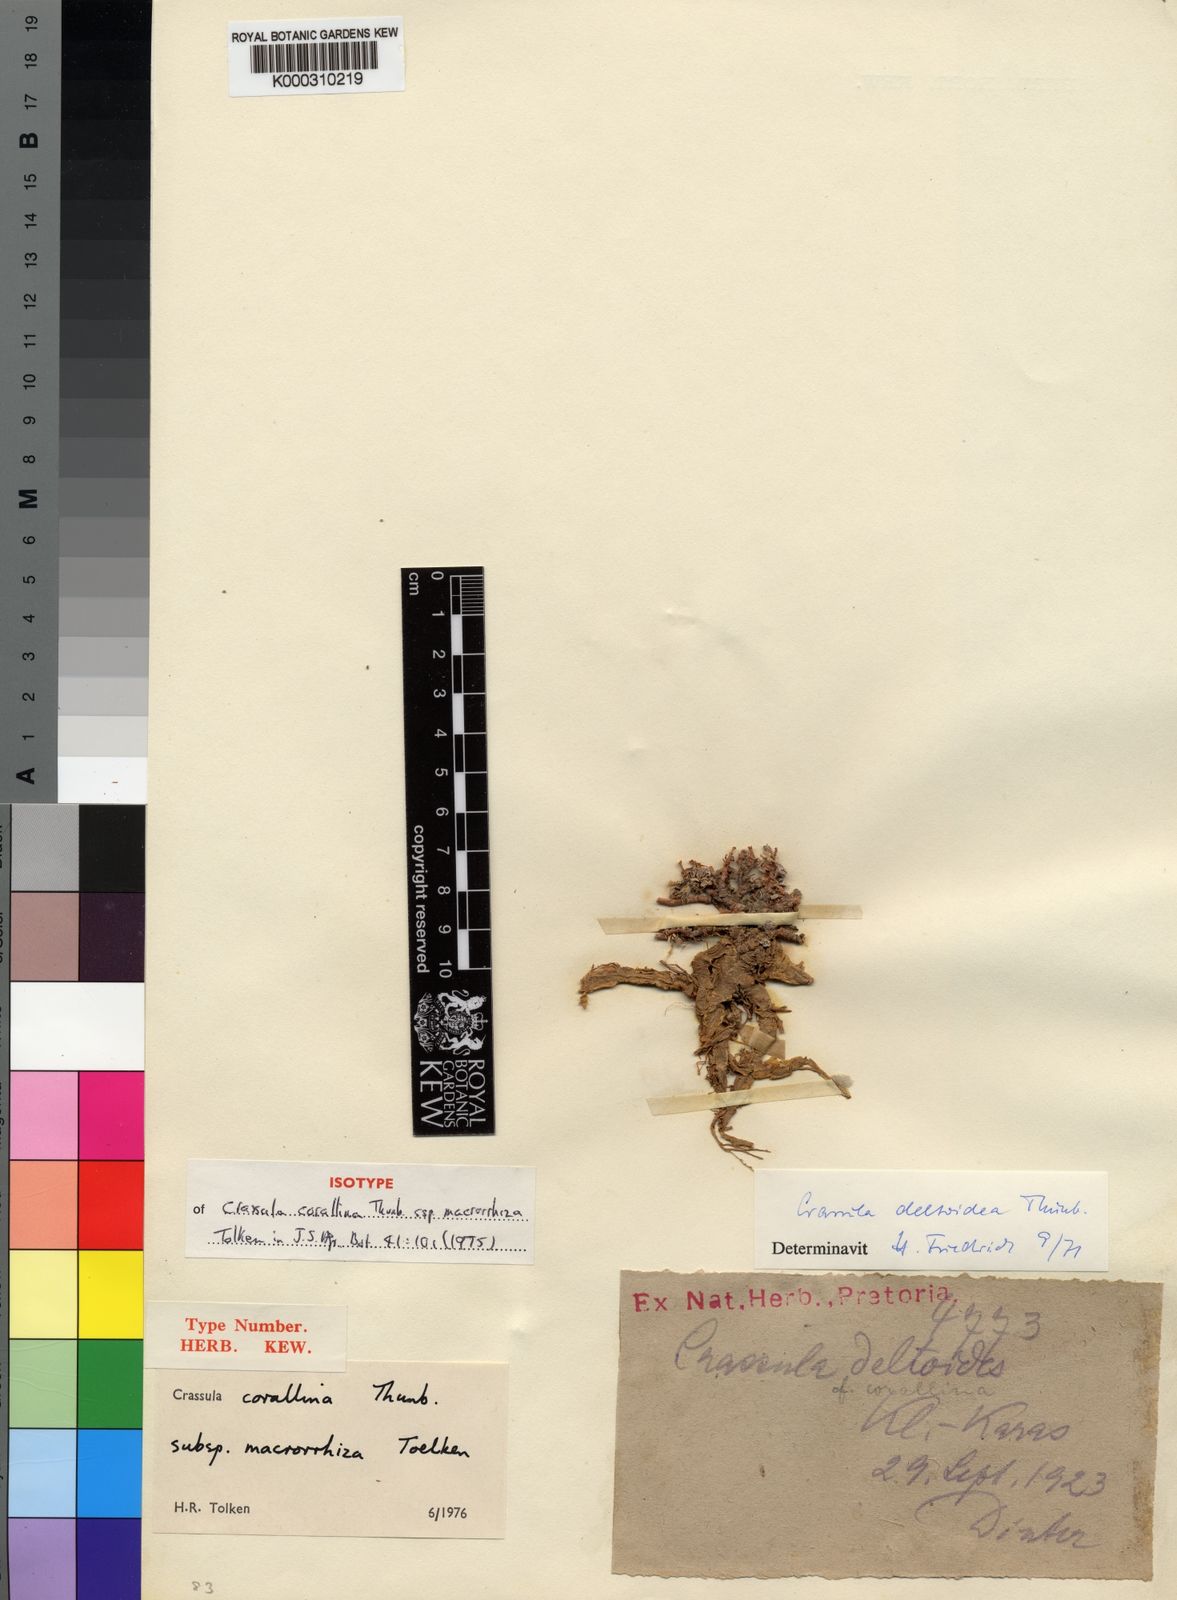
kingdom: Plantae
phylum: Tracheophyta
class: Magnoliopsida
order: Saxifragales
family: Crassulaceae
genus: Crassula
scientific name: Crassula corallina
